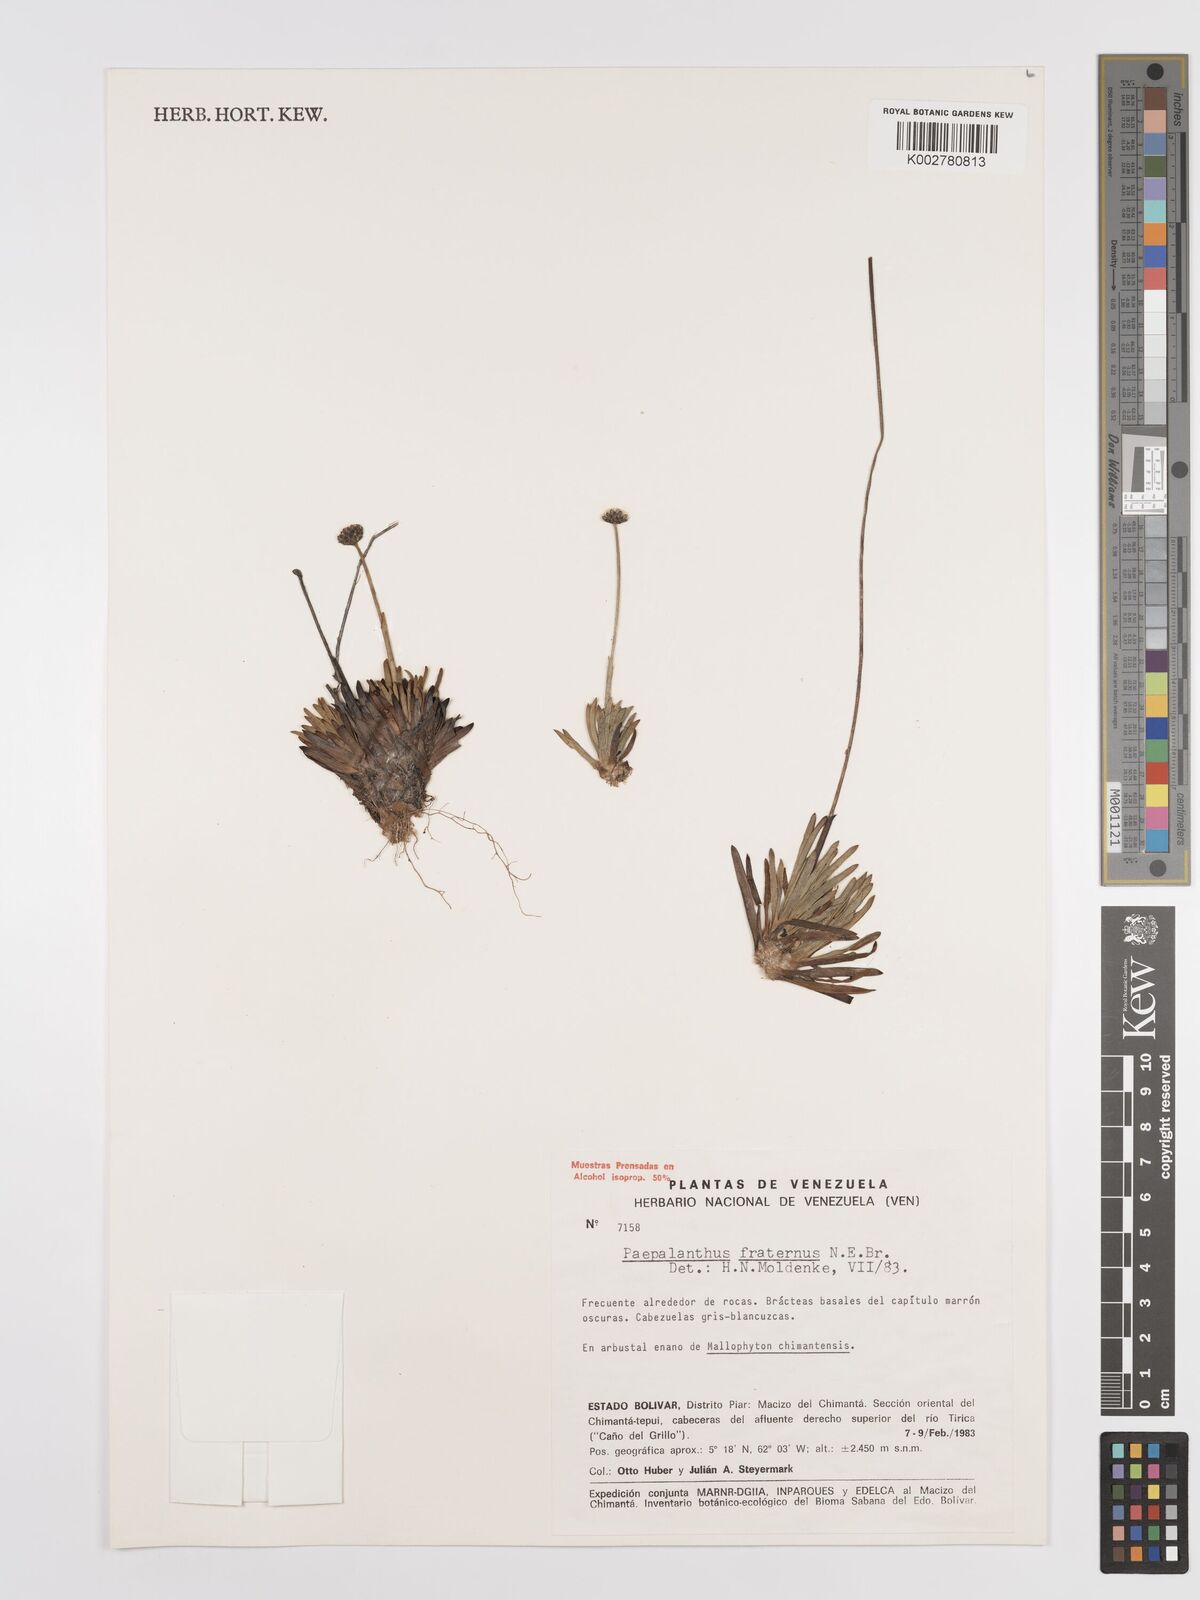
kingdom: Plantae
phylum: Tracheophyta
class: Liliopsida
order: Poales
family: Eriocaulaceae
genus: Paepalanthus
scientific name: Paepalanthus fraternus
